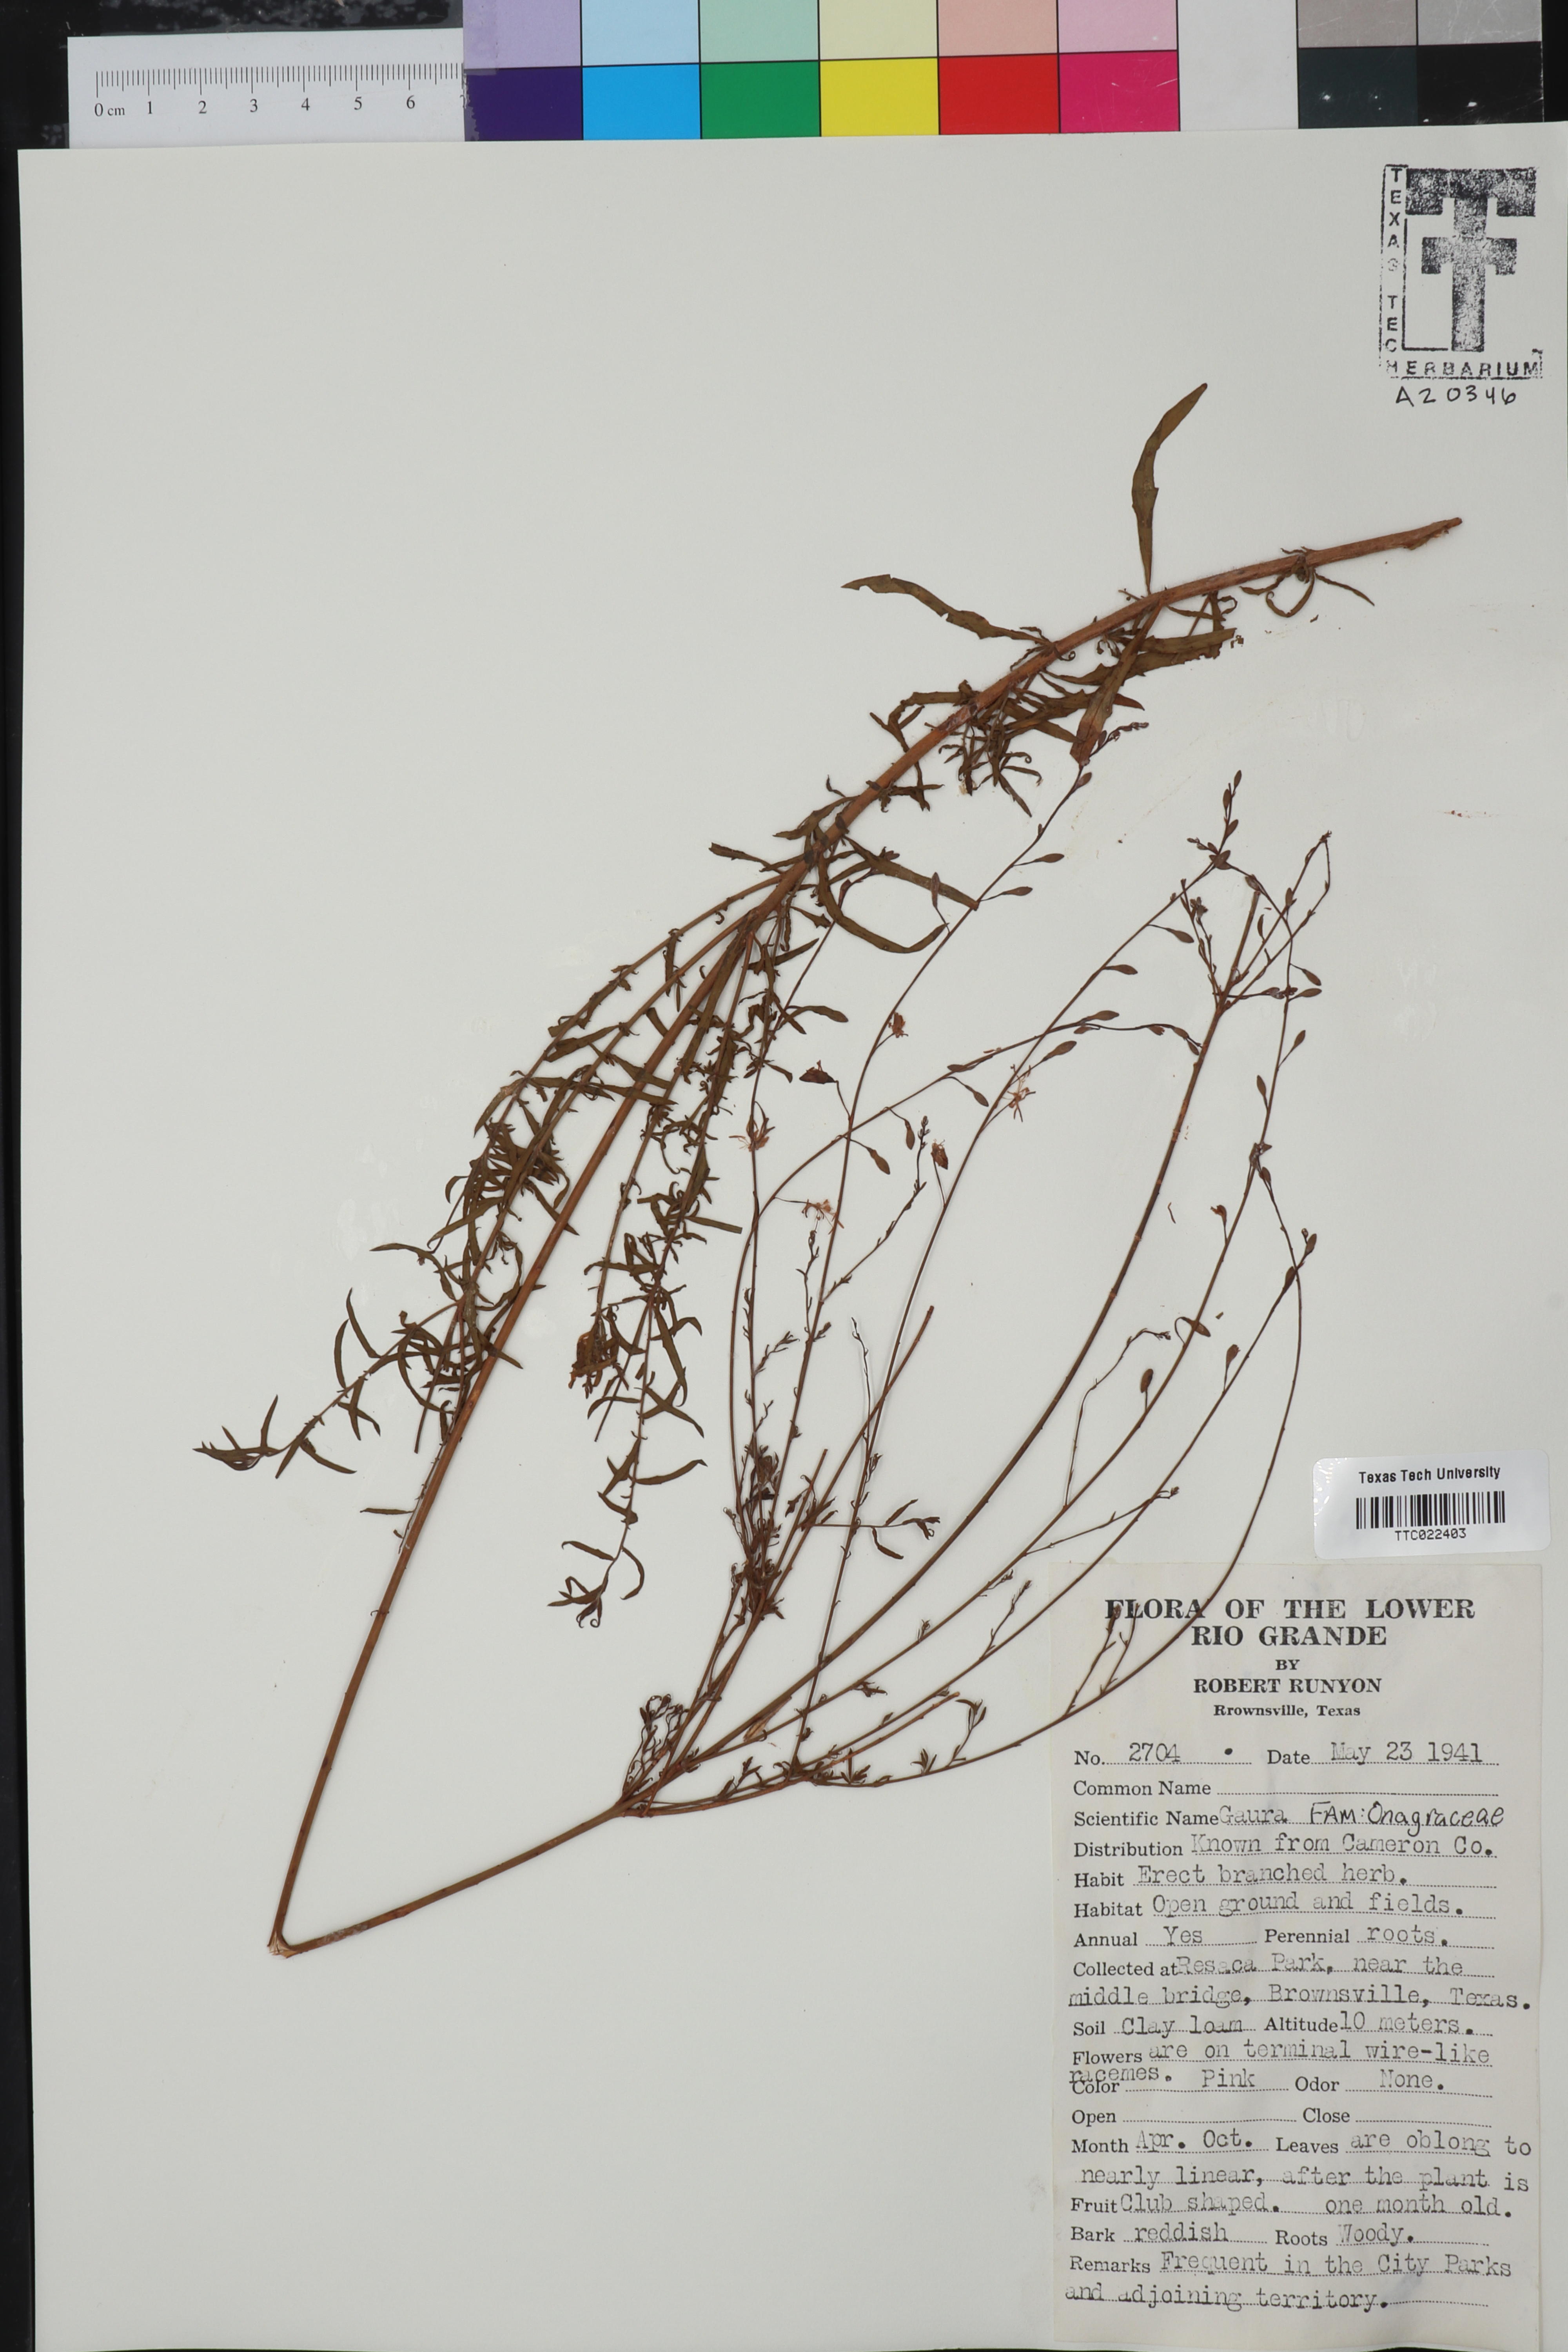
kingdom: Plantae
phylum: Tracheophyta
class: Magnoliopsida
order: Myrtales
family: Onagraceae
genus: Oenothera
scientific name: Oenothera
